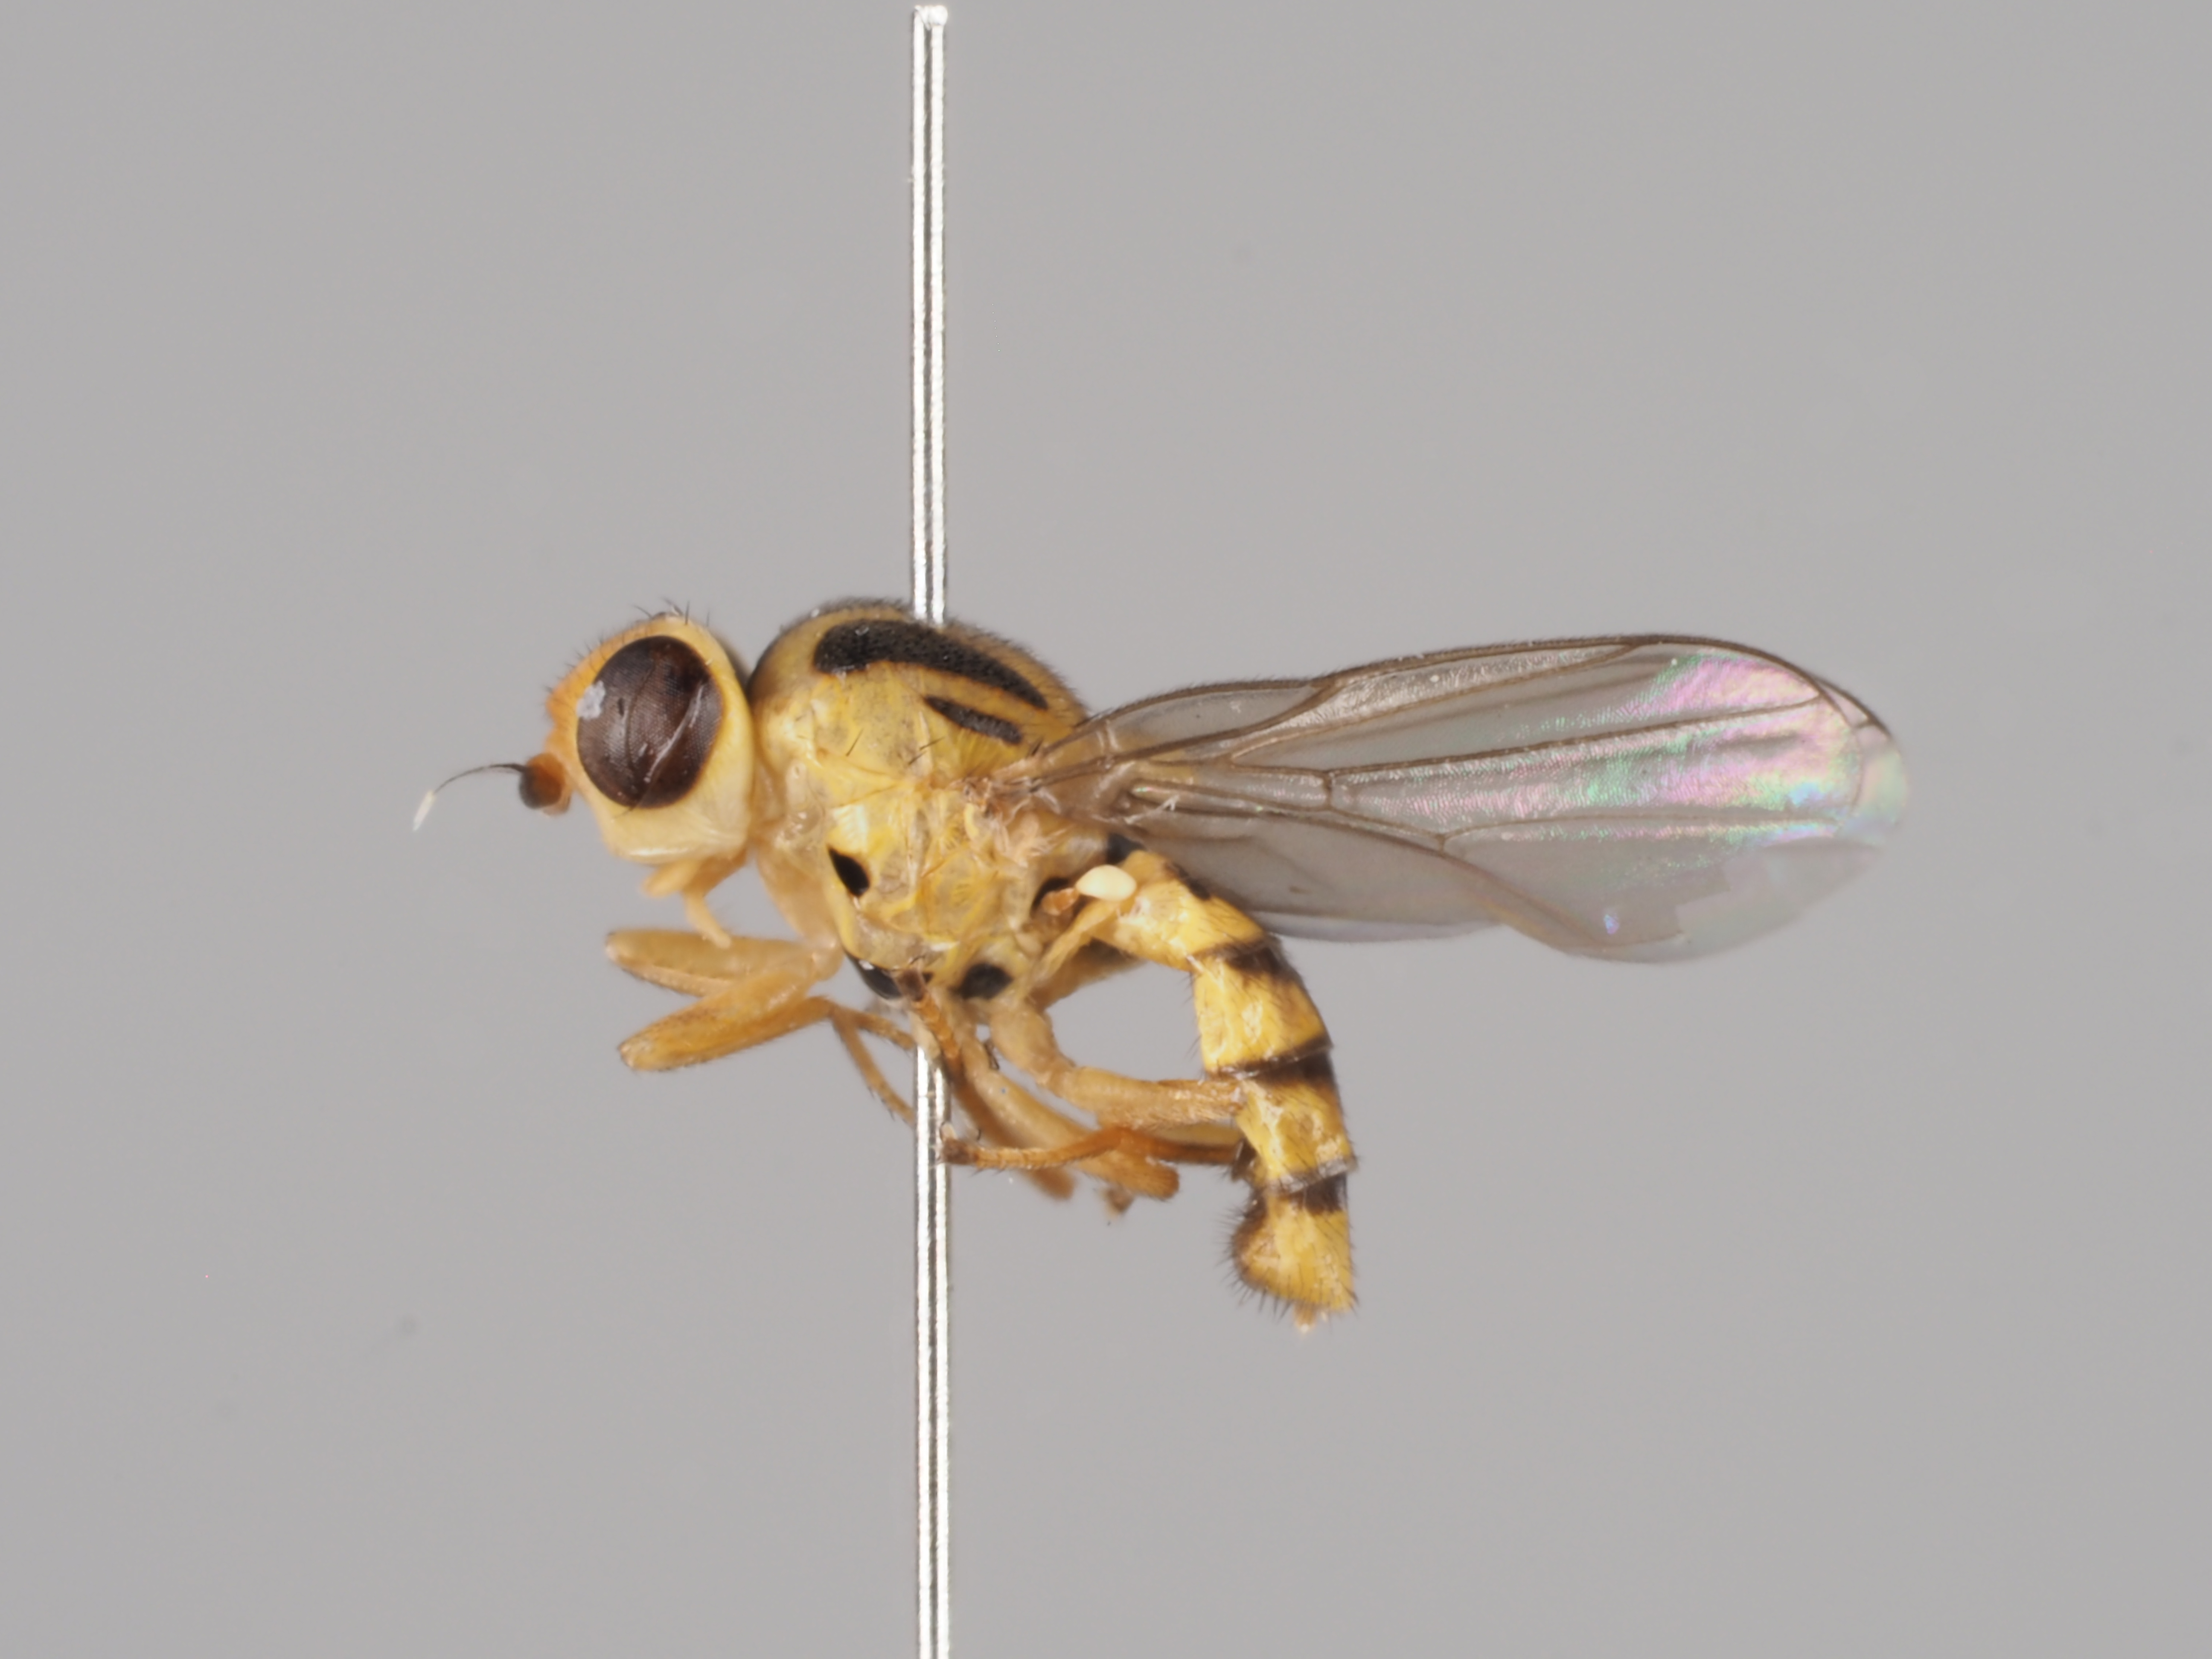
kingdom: Animalia
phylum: Arthropoda
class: Insecta
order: Diptera
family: Chloropidae
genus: Chlorops
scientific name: Chlorops scalaris
